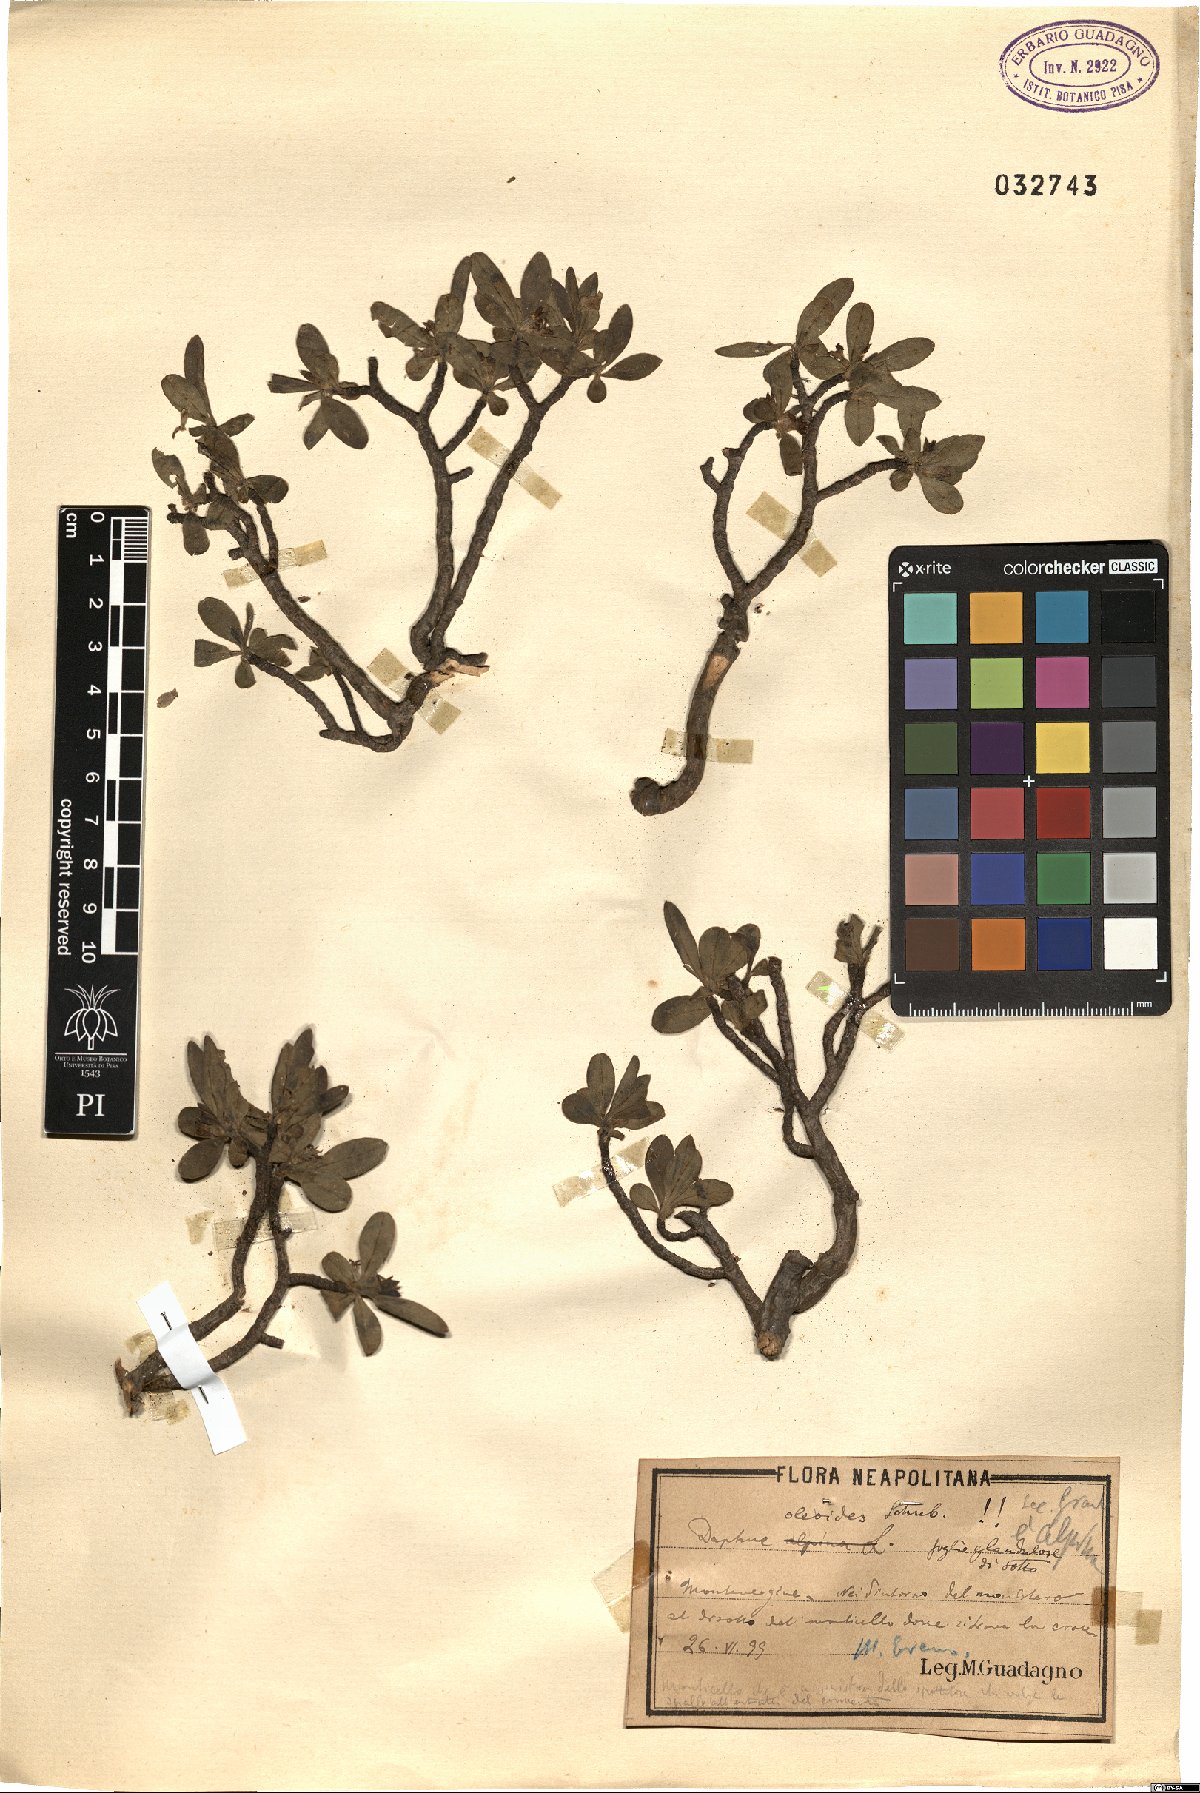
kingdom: Plantae
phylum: Tracheophyta
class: Magnoliopsida
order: Malvales
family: Thymelaeaceae
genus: Daphne
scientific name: Daphne oleoides
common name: Spurge-olive
